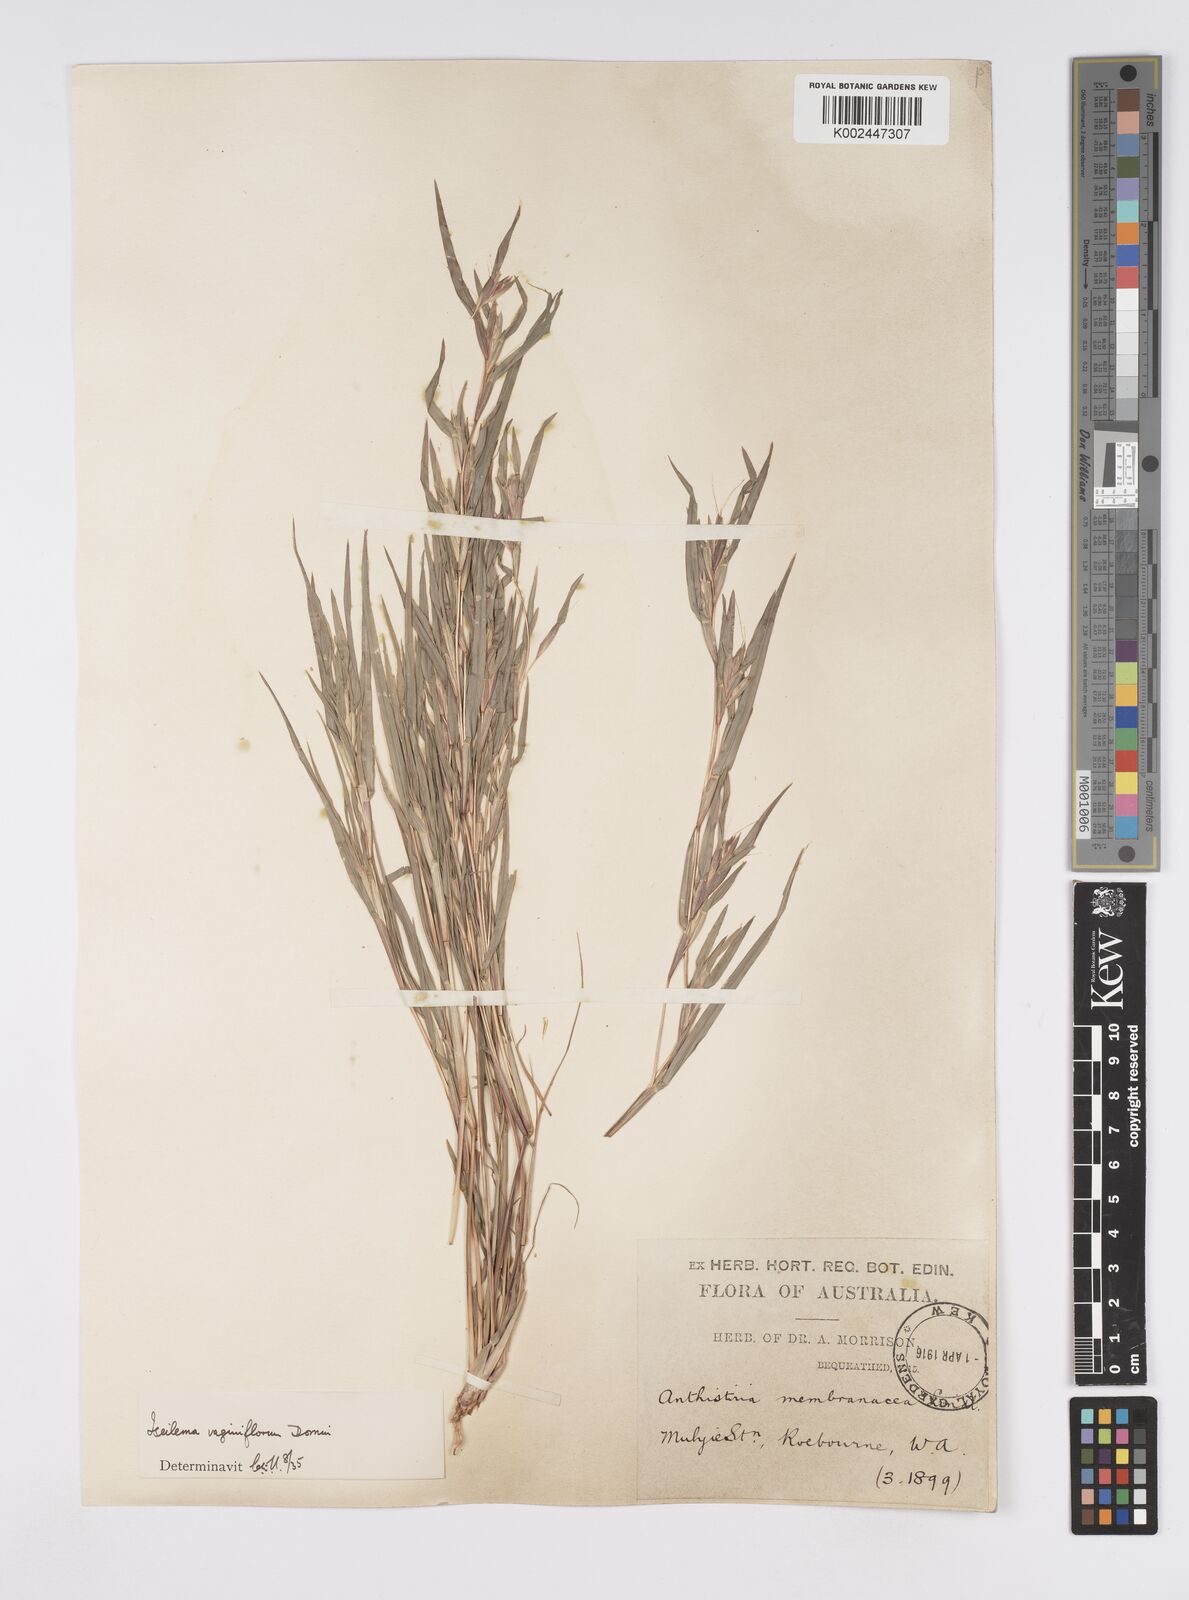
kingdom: Plantae
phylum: Tracheophyta
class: Liliopsida
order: Poales
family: Poaceae
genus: Iseilema
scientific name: Iseilema vaginiflorum
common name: Red flinders grass
